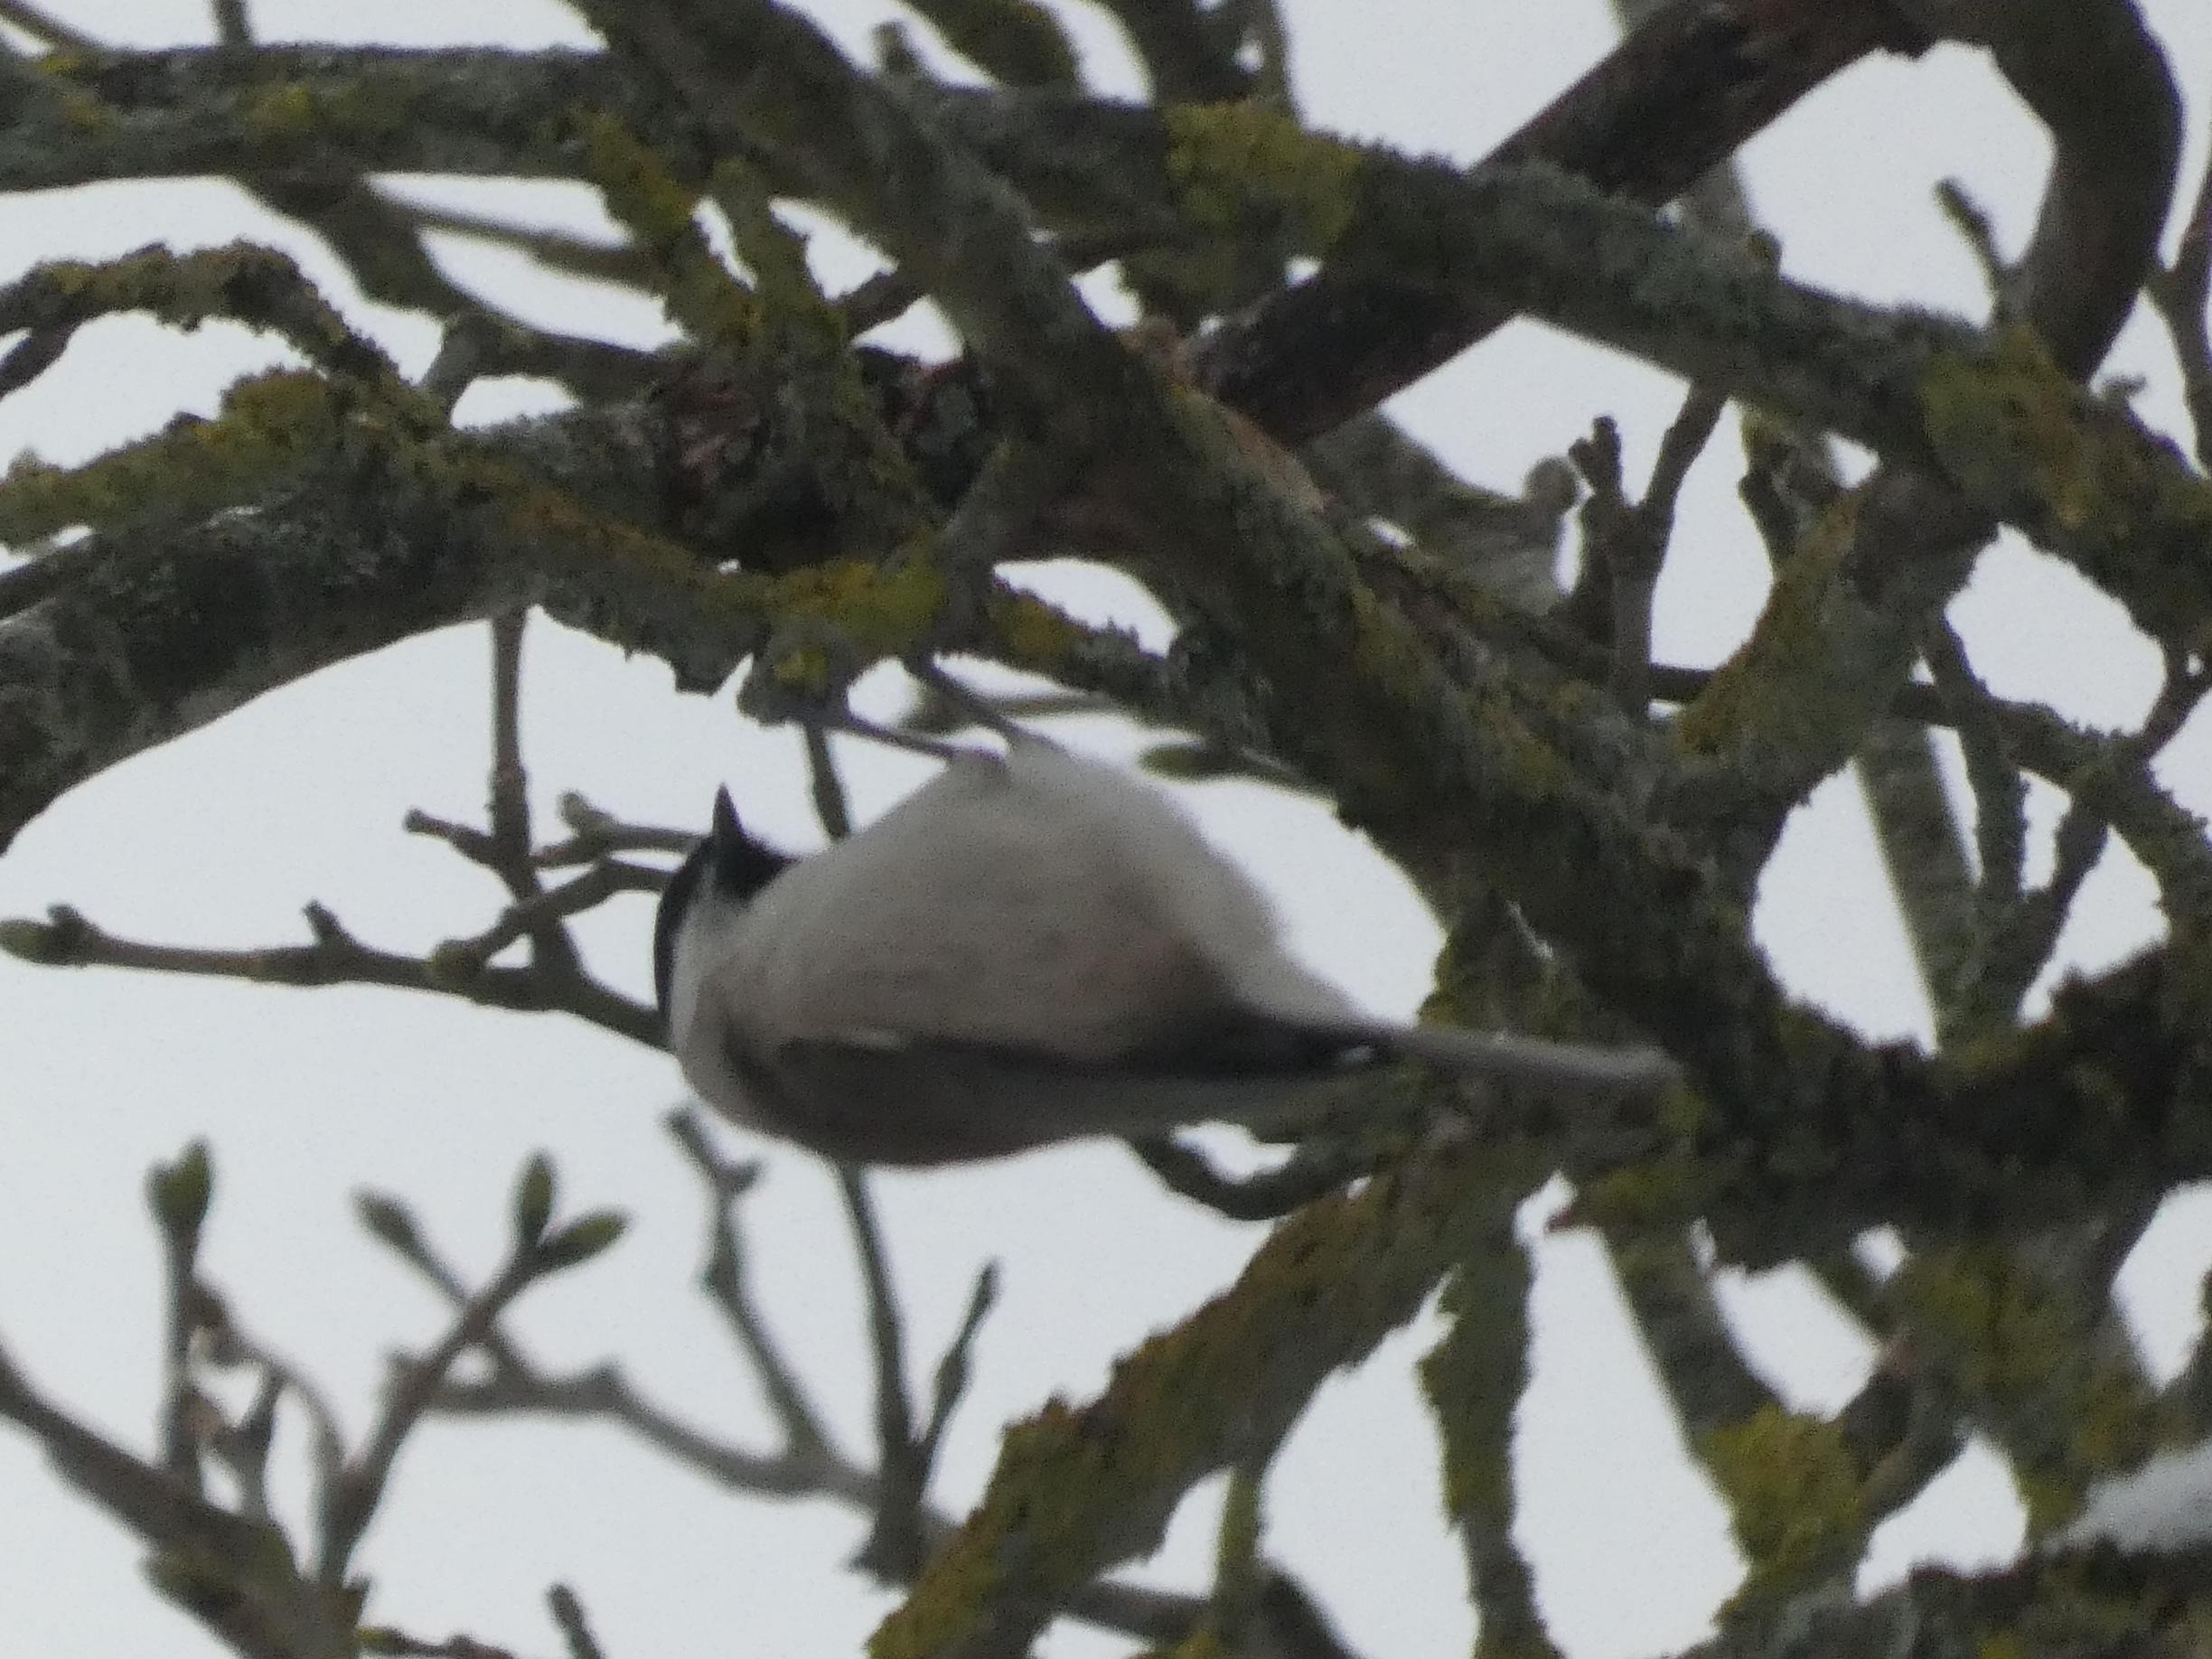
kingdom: Animalia
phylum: Chordata
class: Aves
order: Passeriformes
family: Paridae
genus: Poecile
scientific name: Poecile palustris
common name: Sumpmejse
